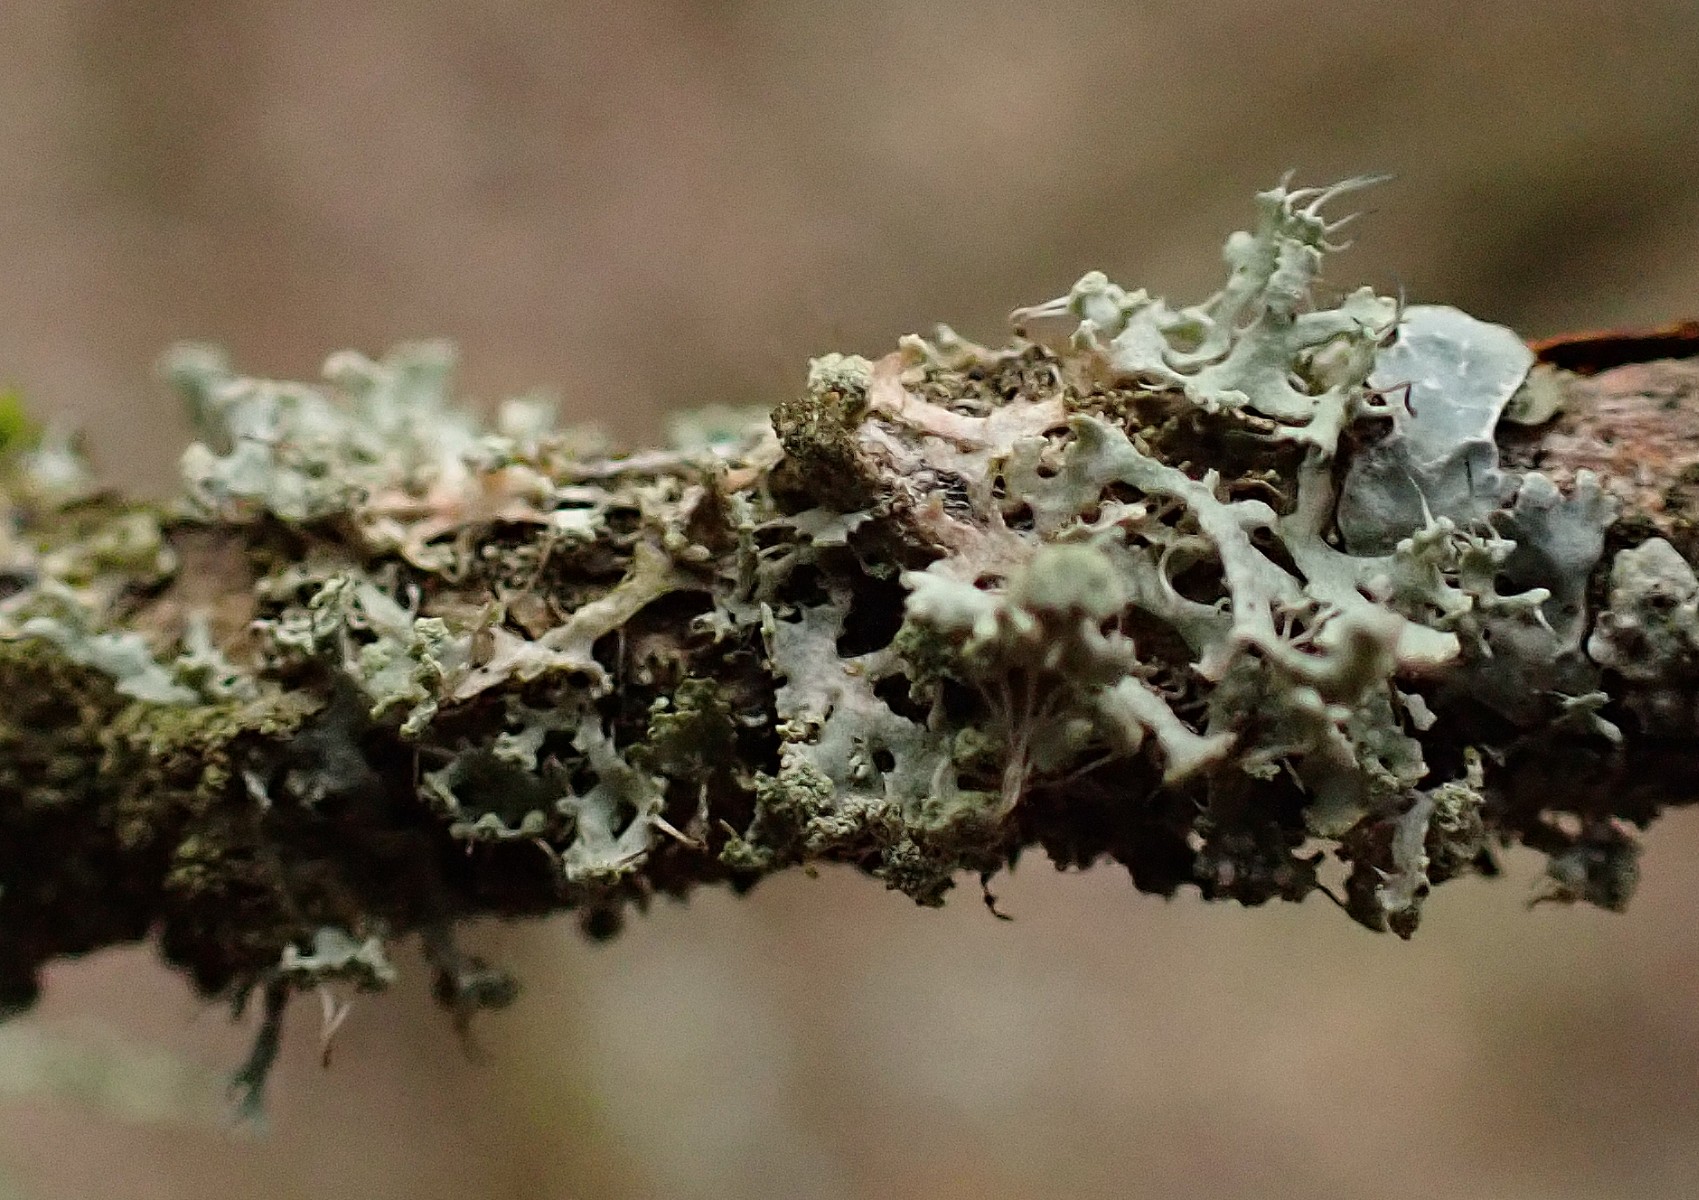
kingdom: Fungi
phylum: Ascomycota
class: Lecanoromycetes
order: Caliciales
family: Physciaceae
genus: Physcia
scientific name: Physcia tenella
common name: spæd rosetlav
